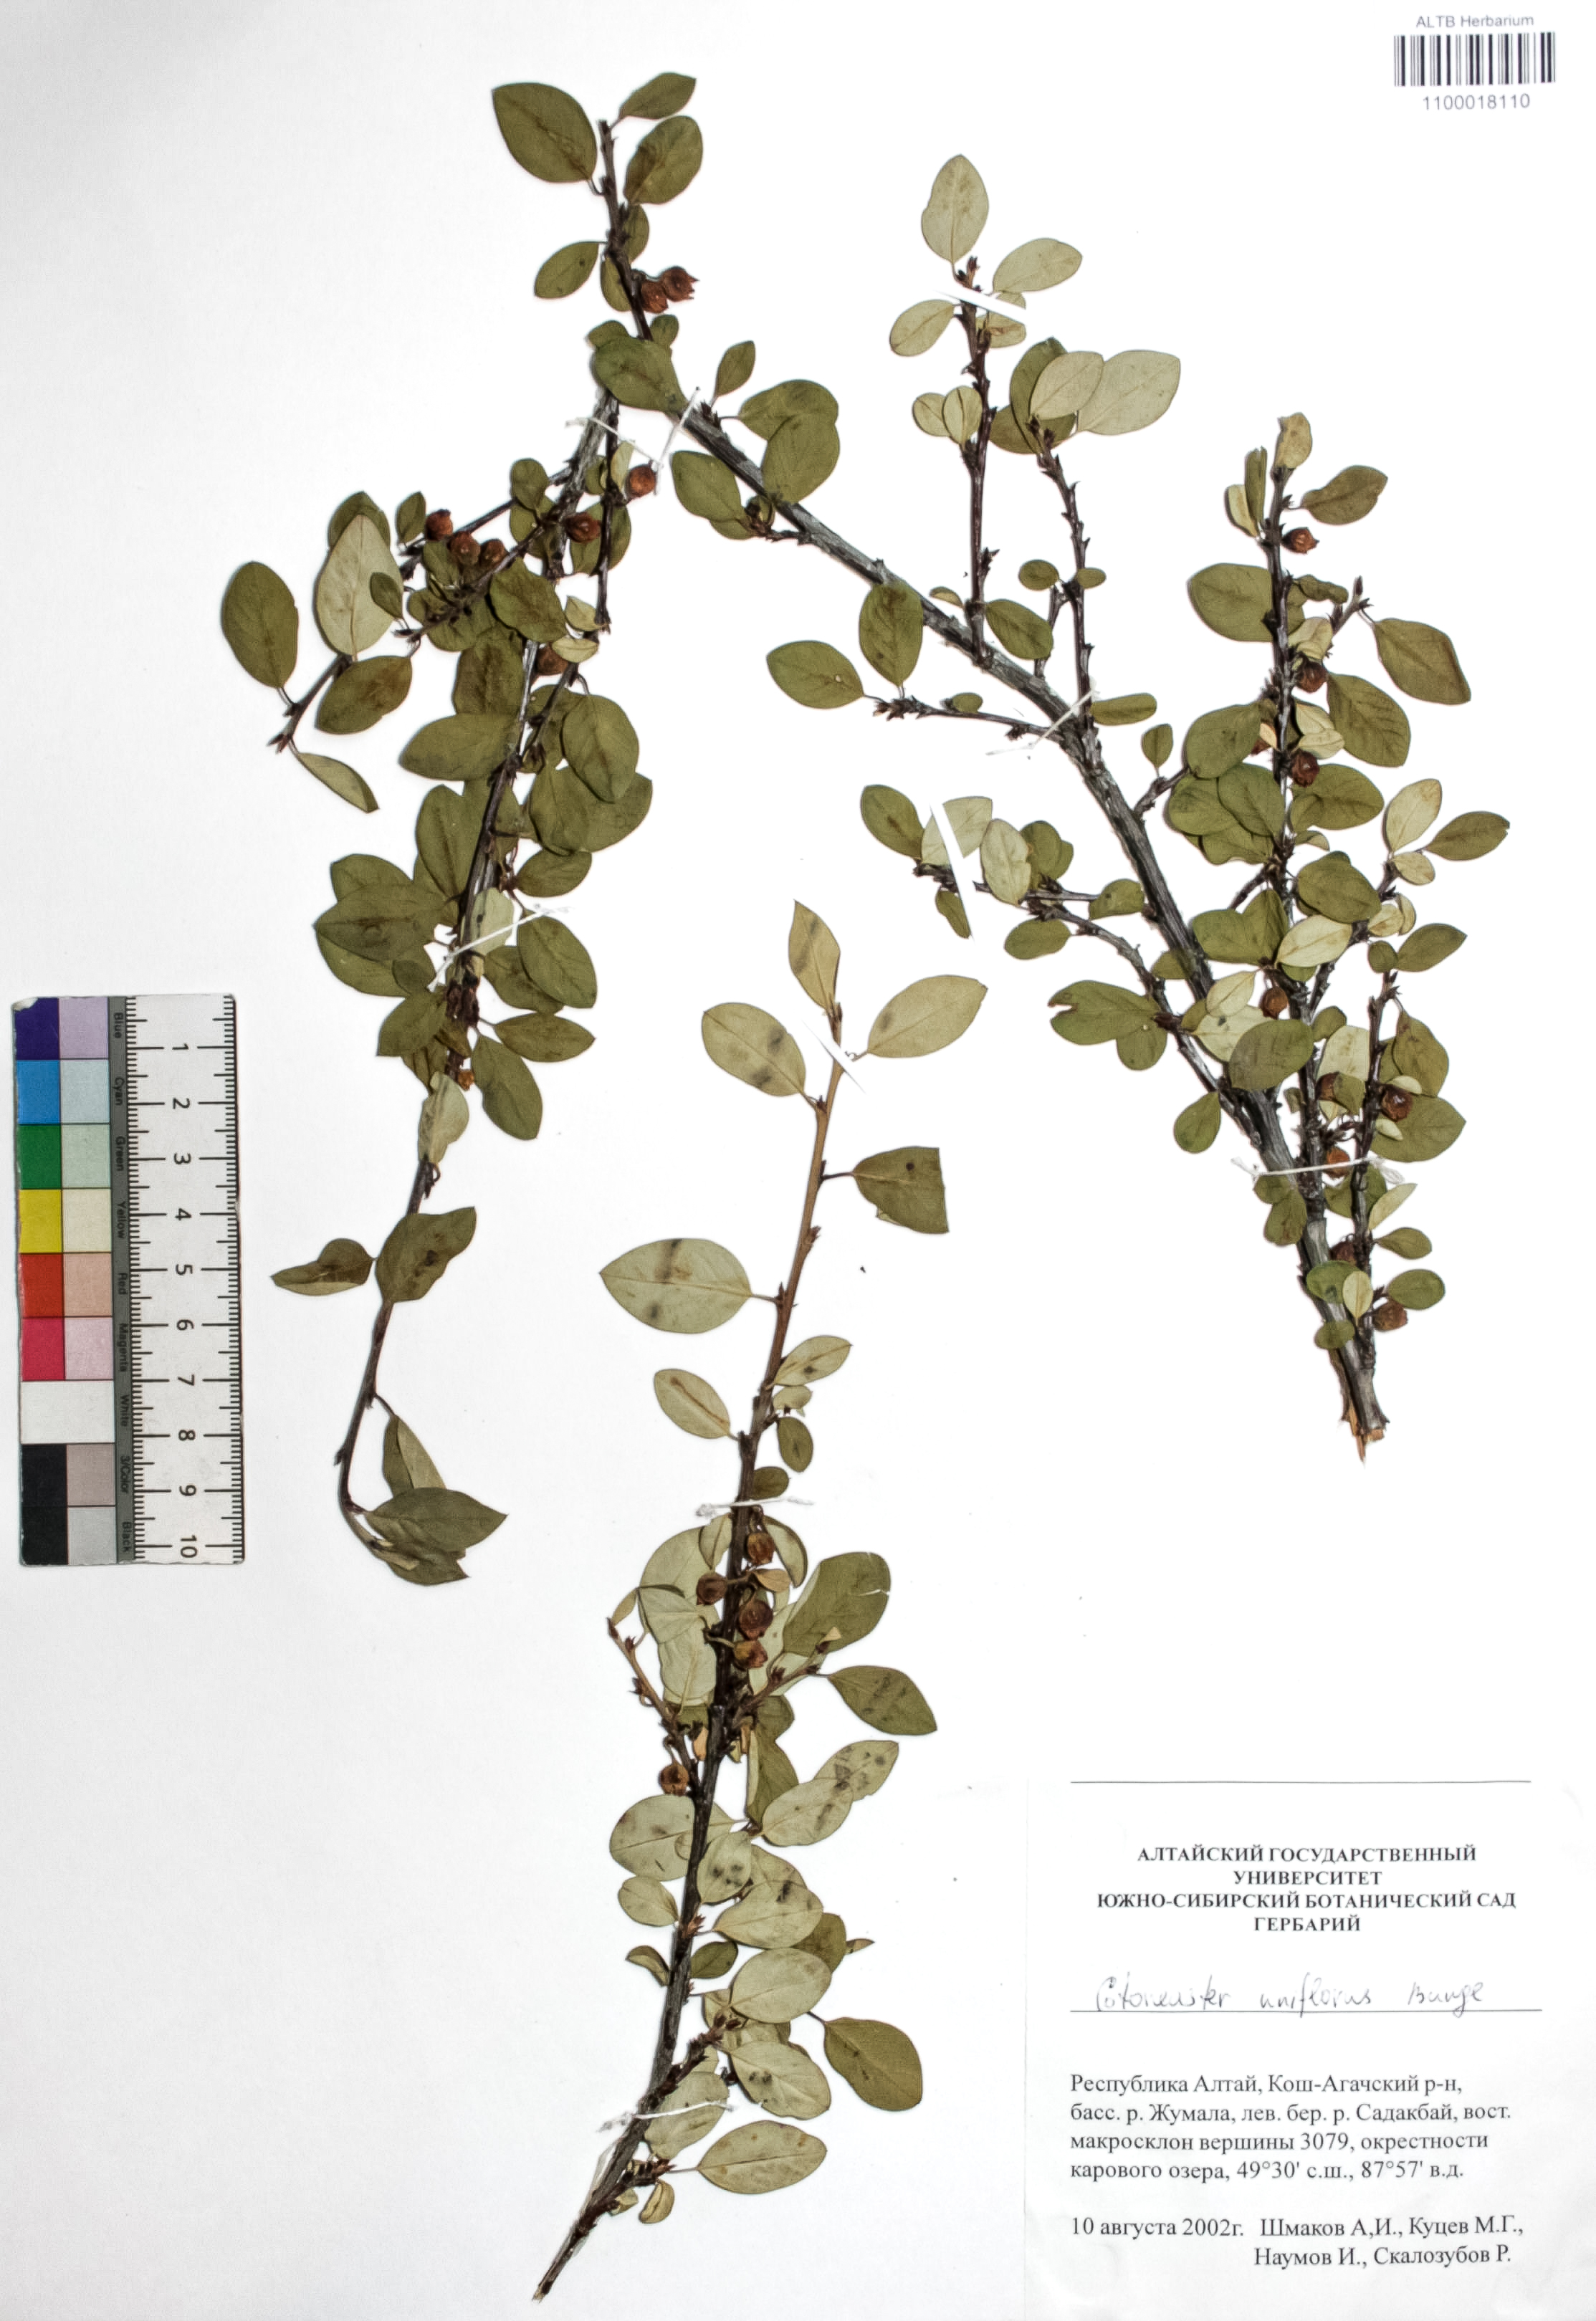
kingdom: Plantae
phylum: Tracheophyta
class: Magnoliopsida
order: Rosales
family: Rosaceae
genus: Cotoneaster
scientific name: Cotoneaster uniflorus
